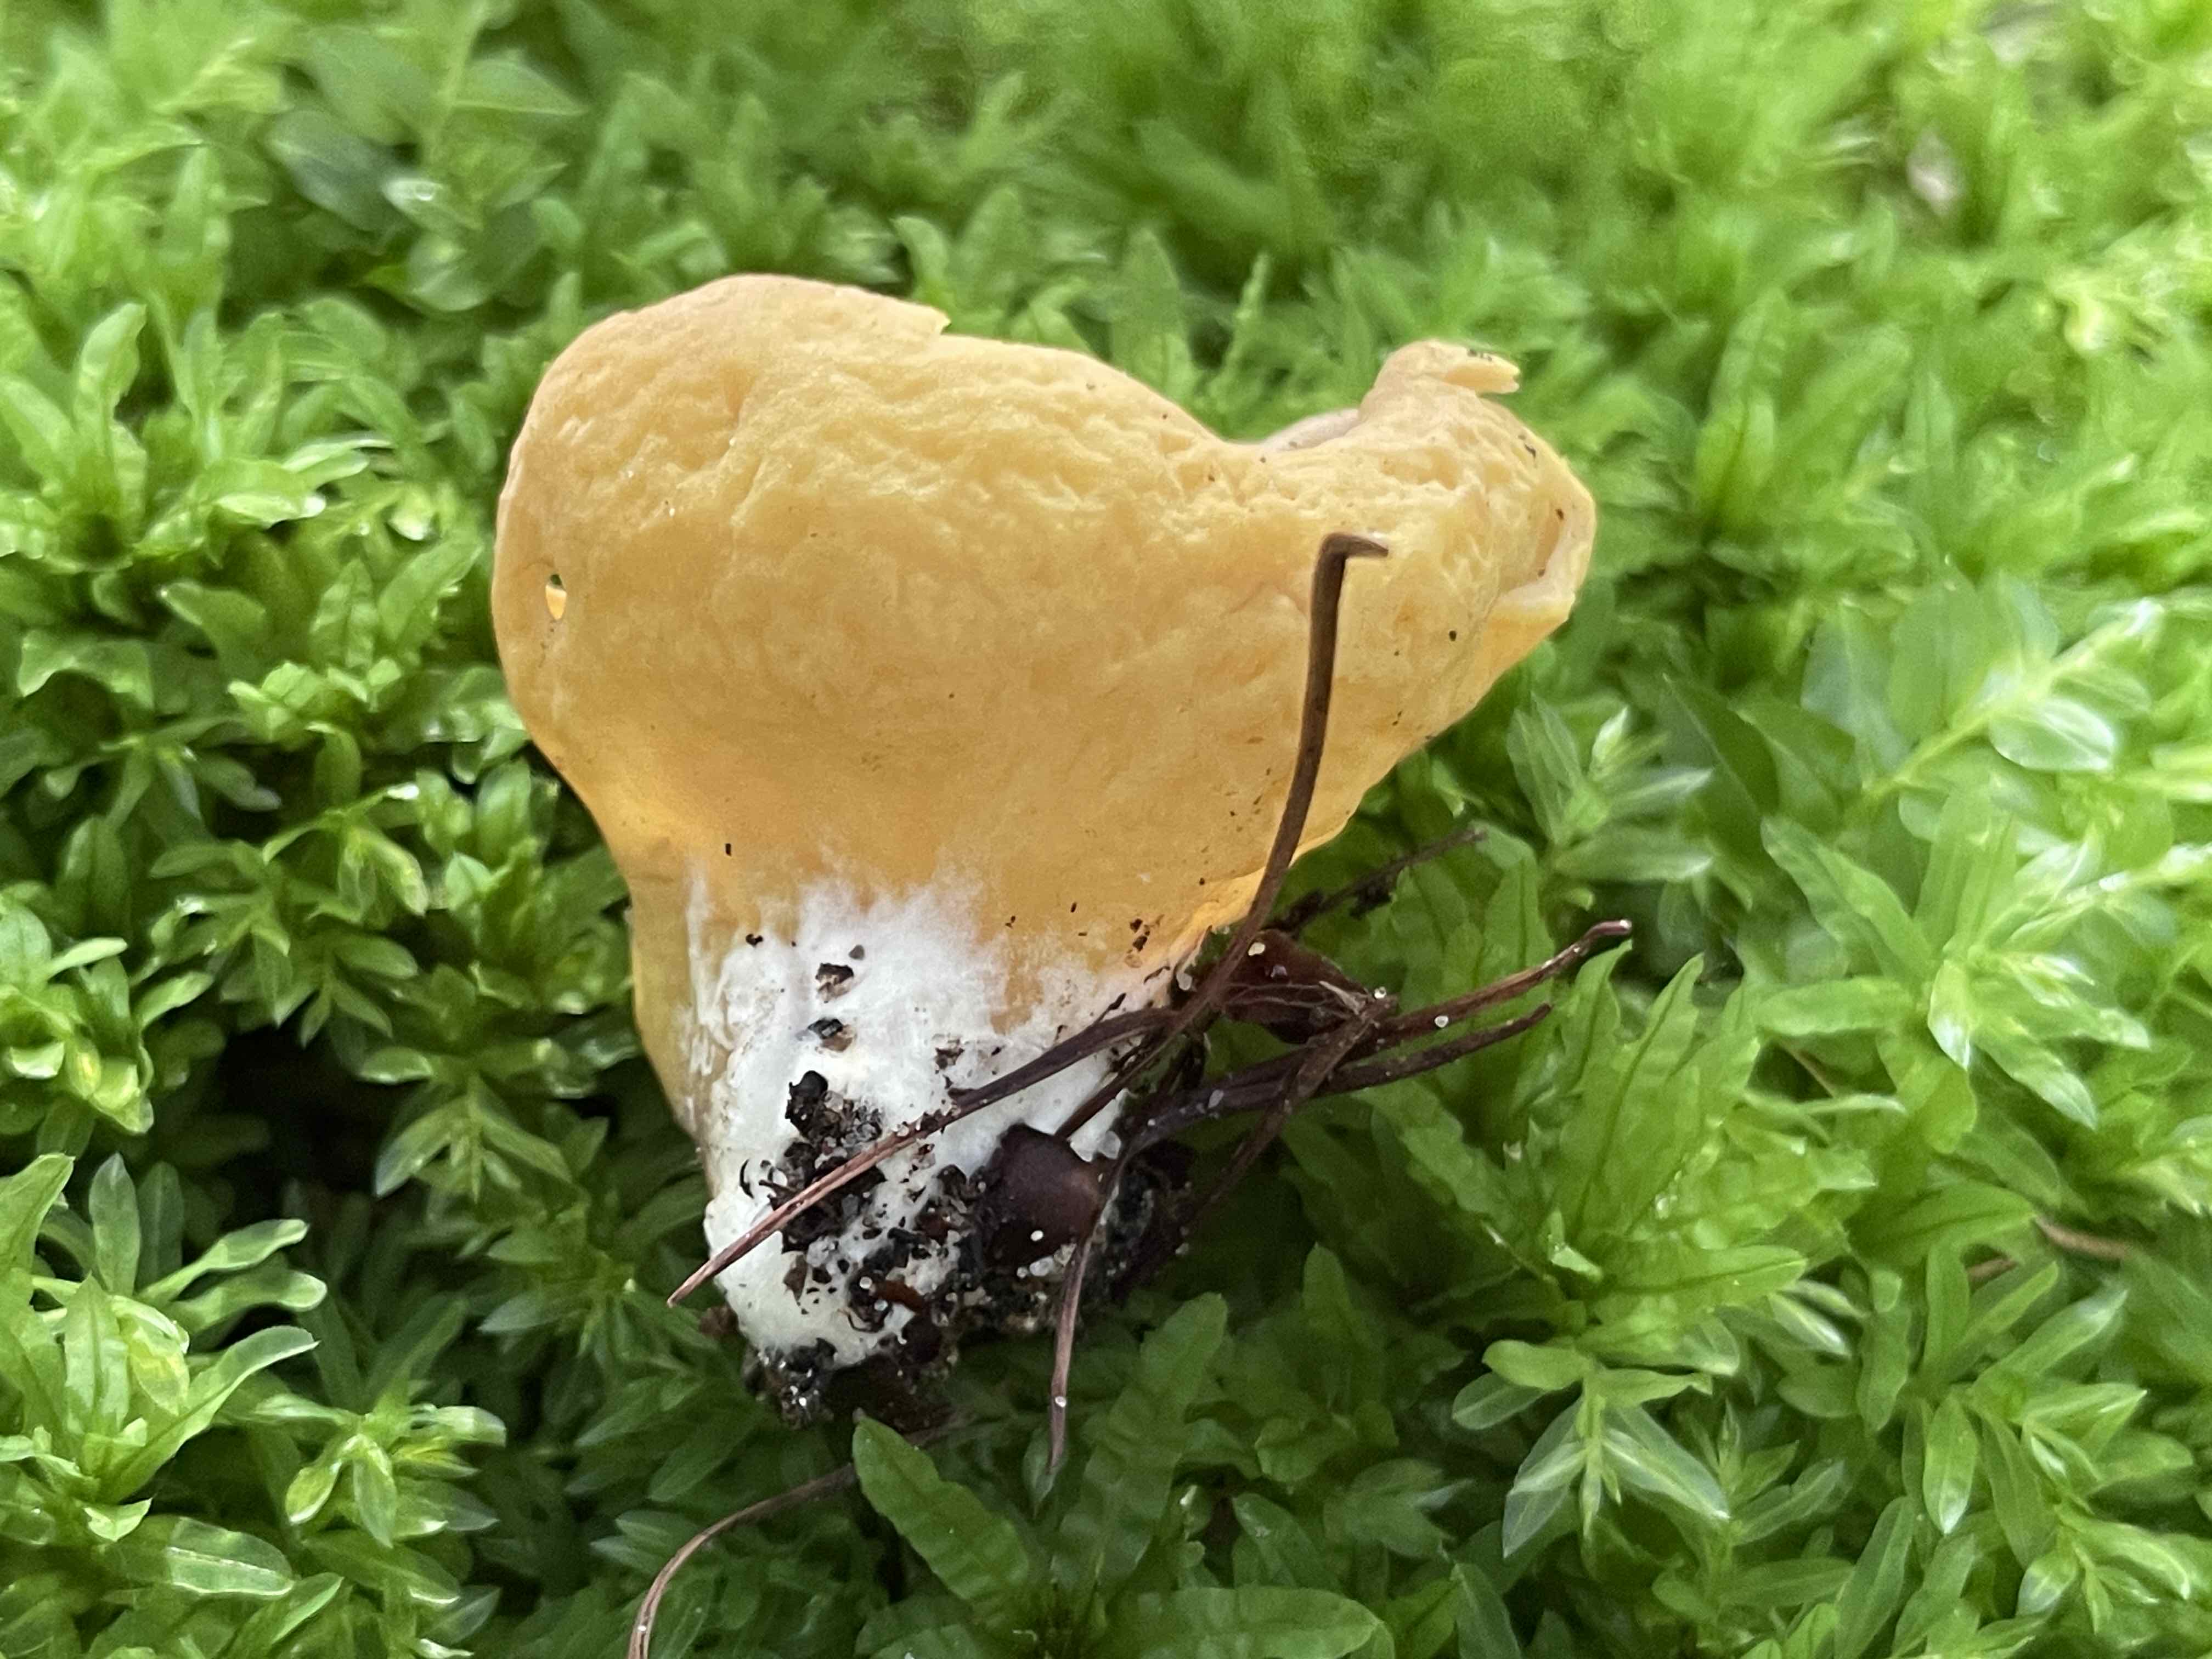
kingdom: Fungi
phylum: Ascomycota
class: Pezizomycetes
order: Pezizales
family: Otideaceae
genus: Otidea
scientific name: Otidea
